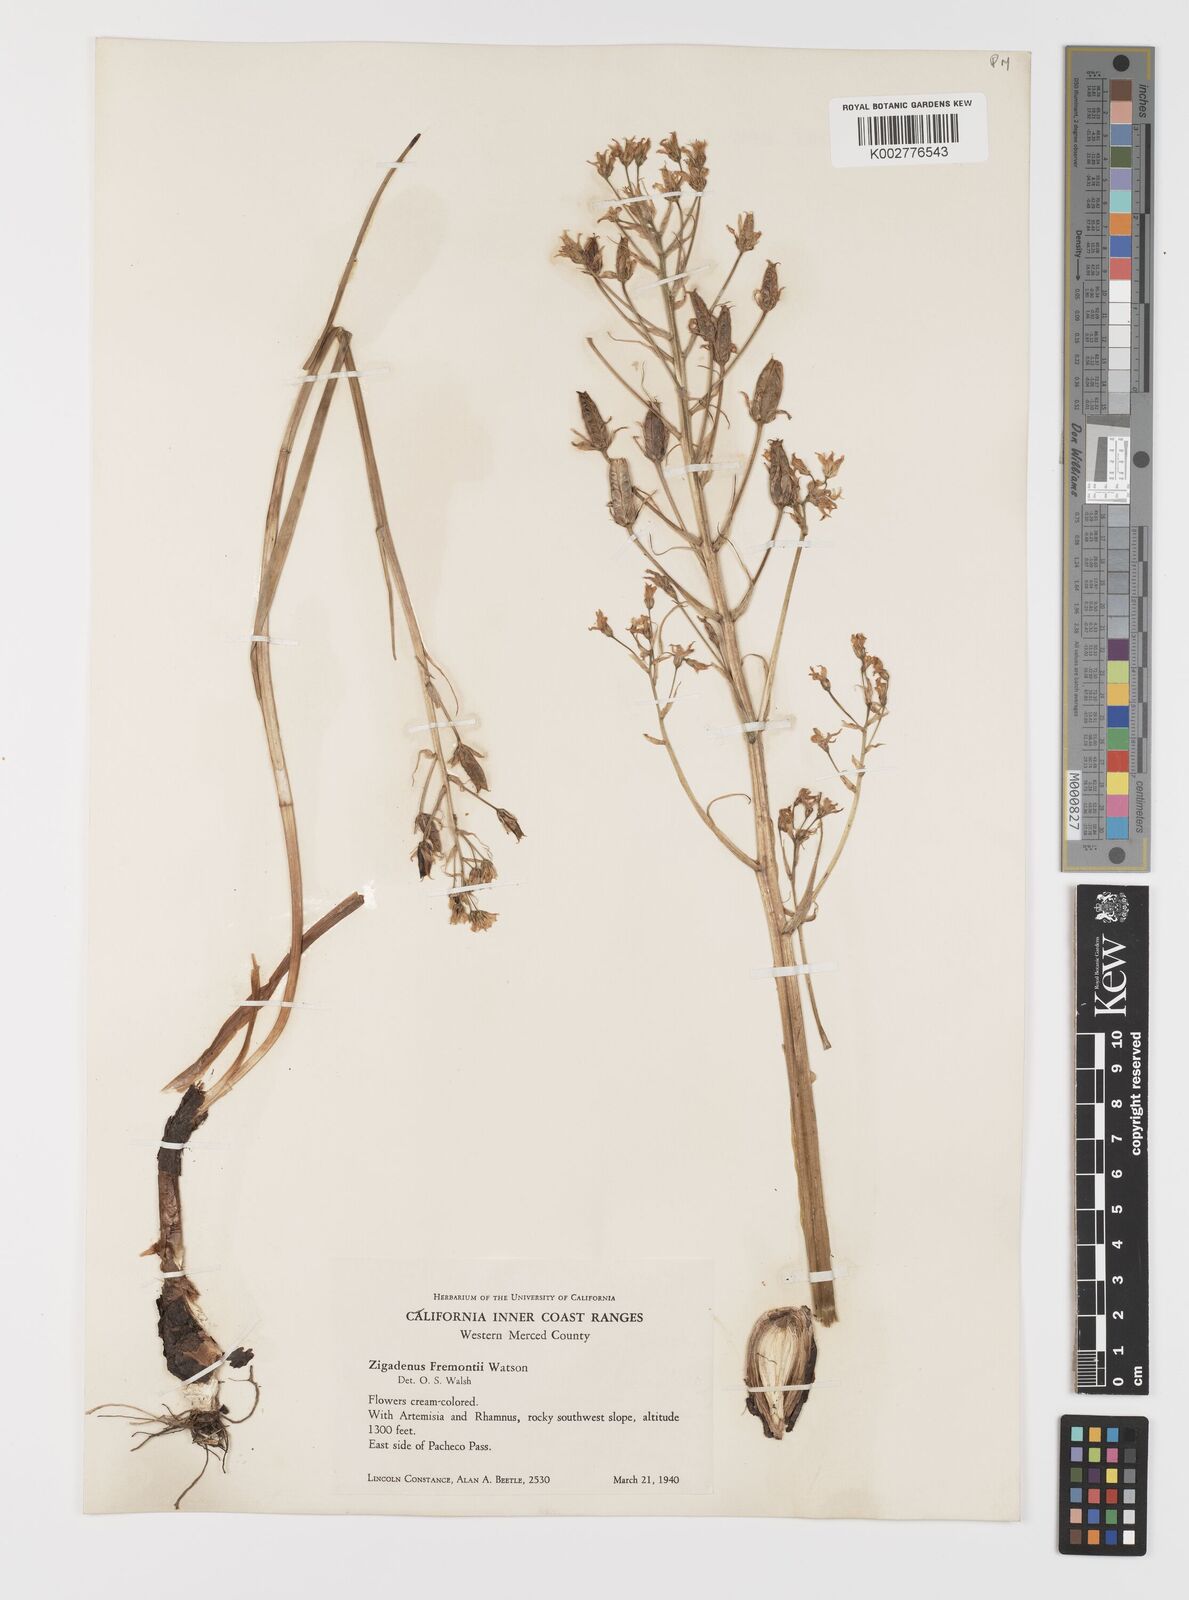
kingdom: Plantae
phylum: Tracheophyta
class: Liliopsida
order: Liliales
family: Melanthiaceae
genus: Toxicoscordion
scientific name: Toxicoscordion fremontii
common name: Fremont's death camas
